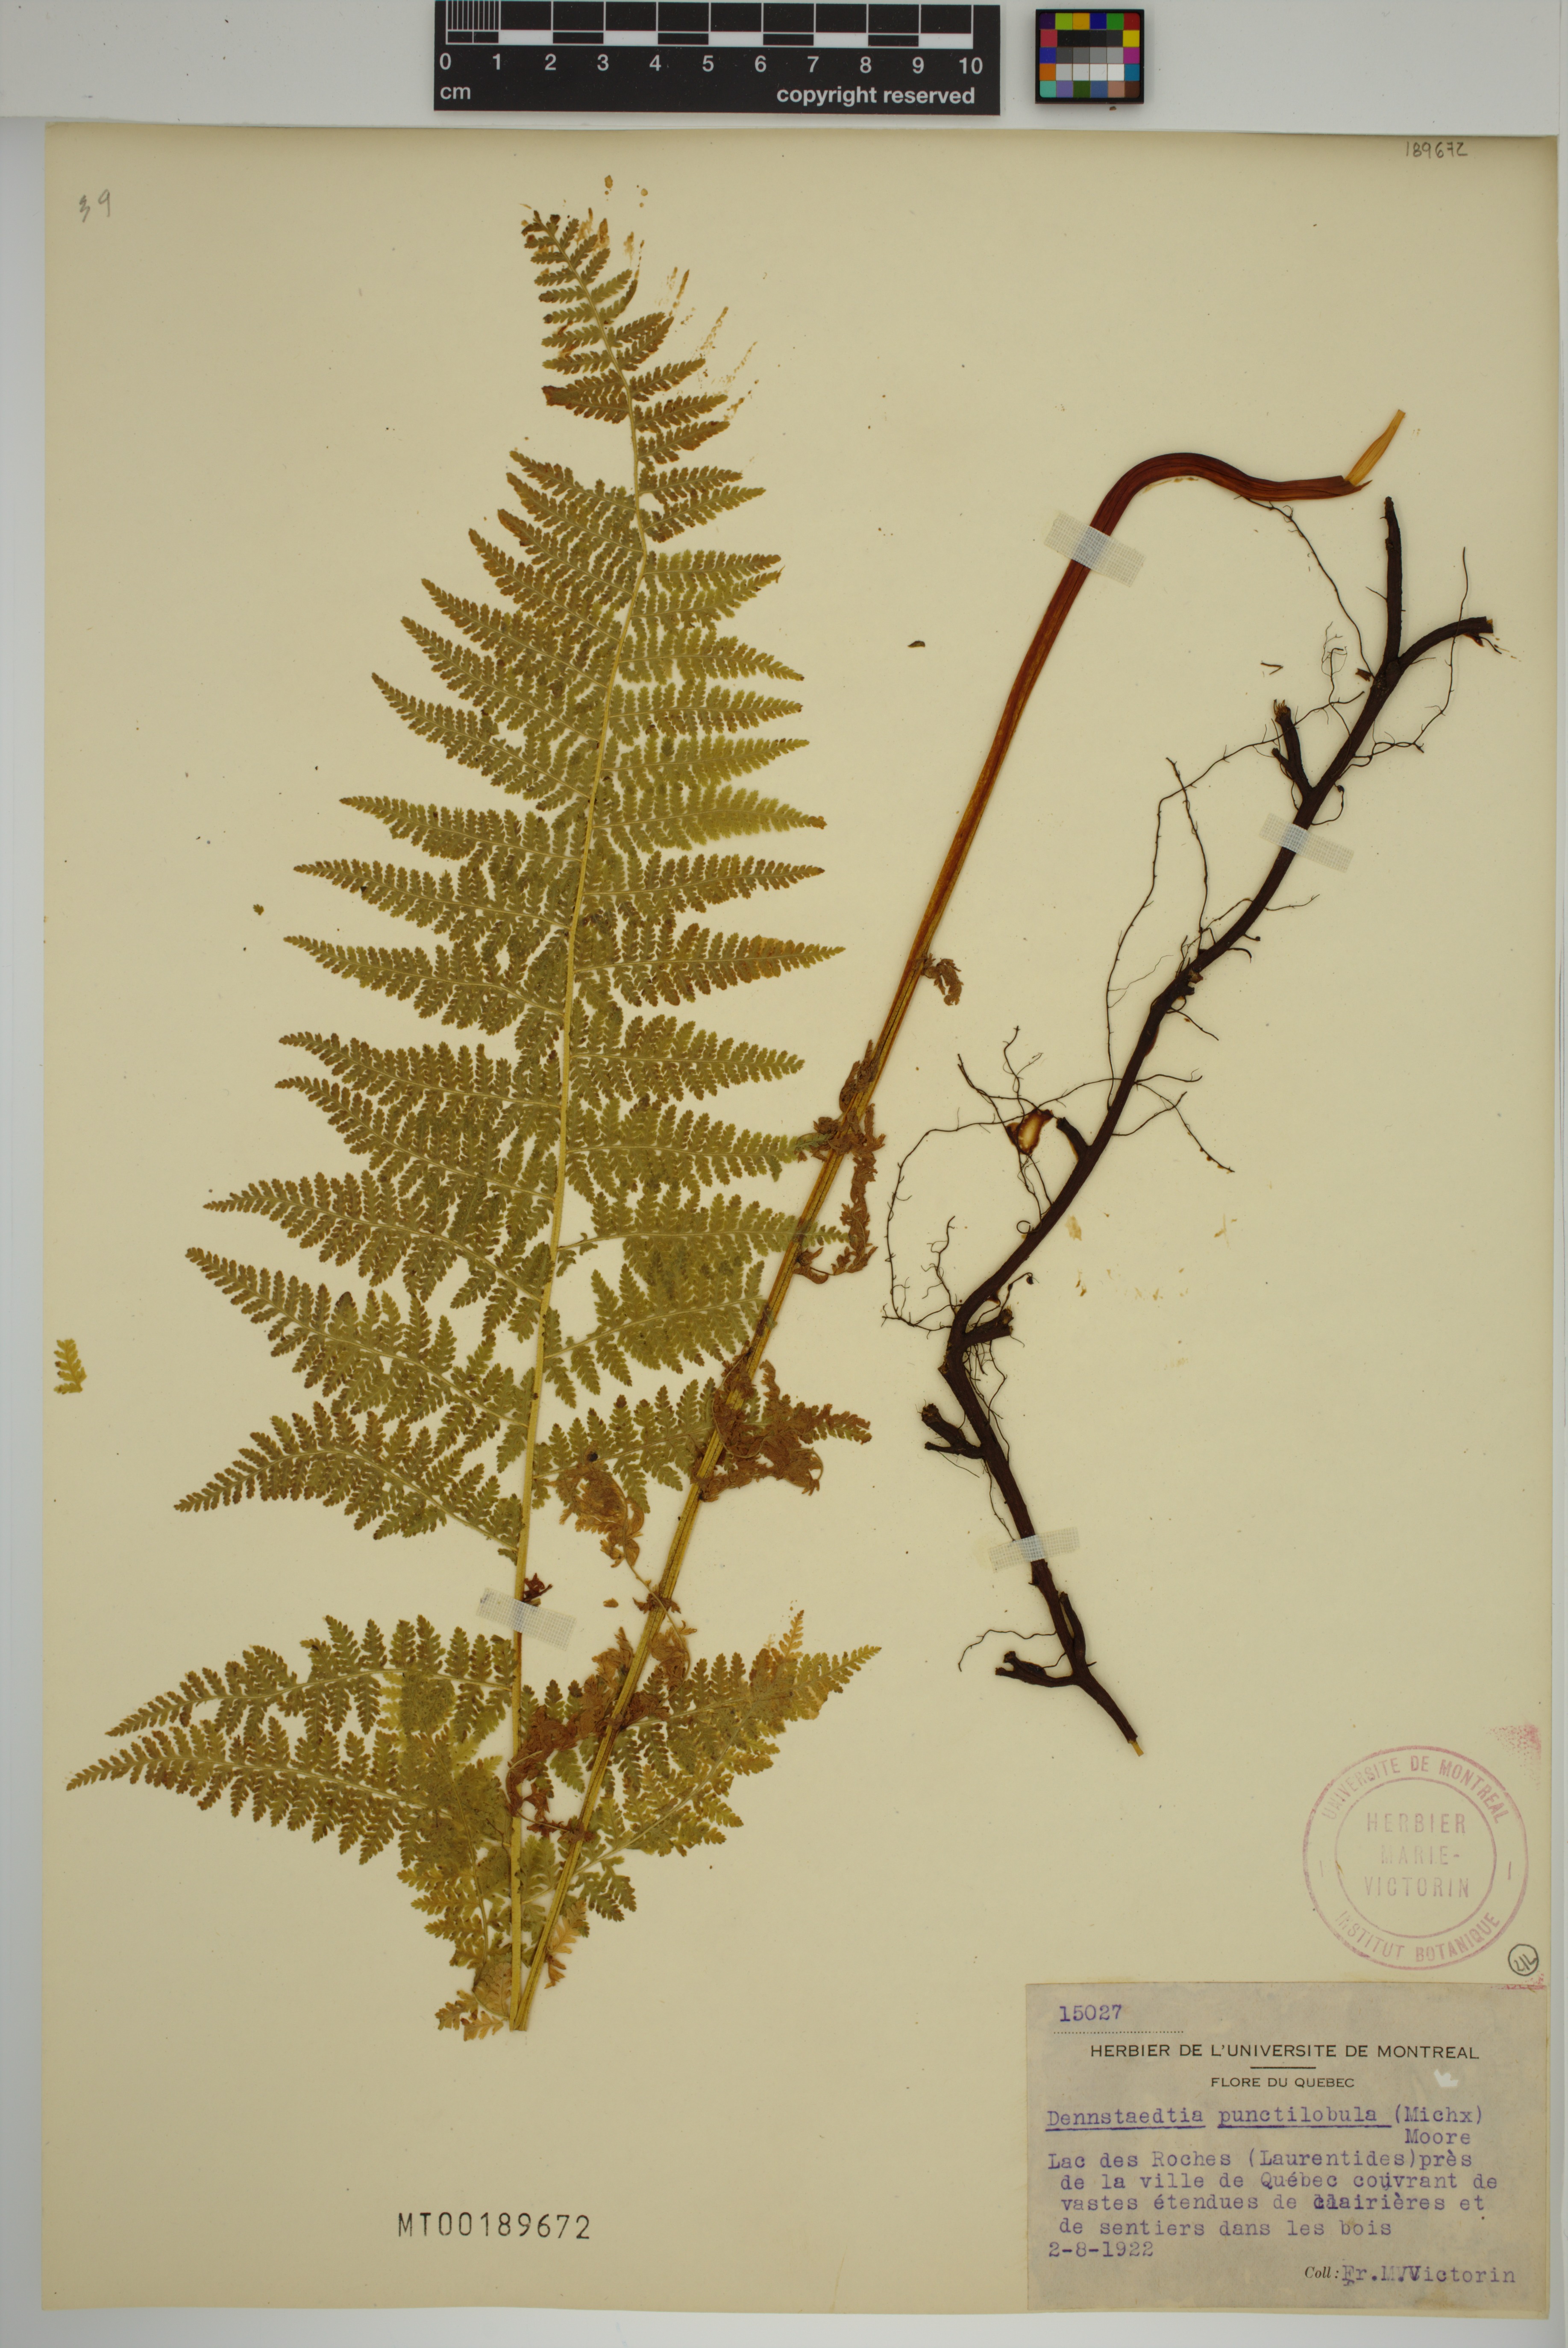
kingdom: Plantae
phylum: Tracheophyta
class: Polypodiopsida
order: Polypodiales
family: Dennstaedtiaceae
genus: Sitobolium
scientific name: Sitobolium punctilobum
